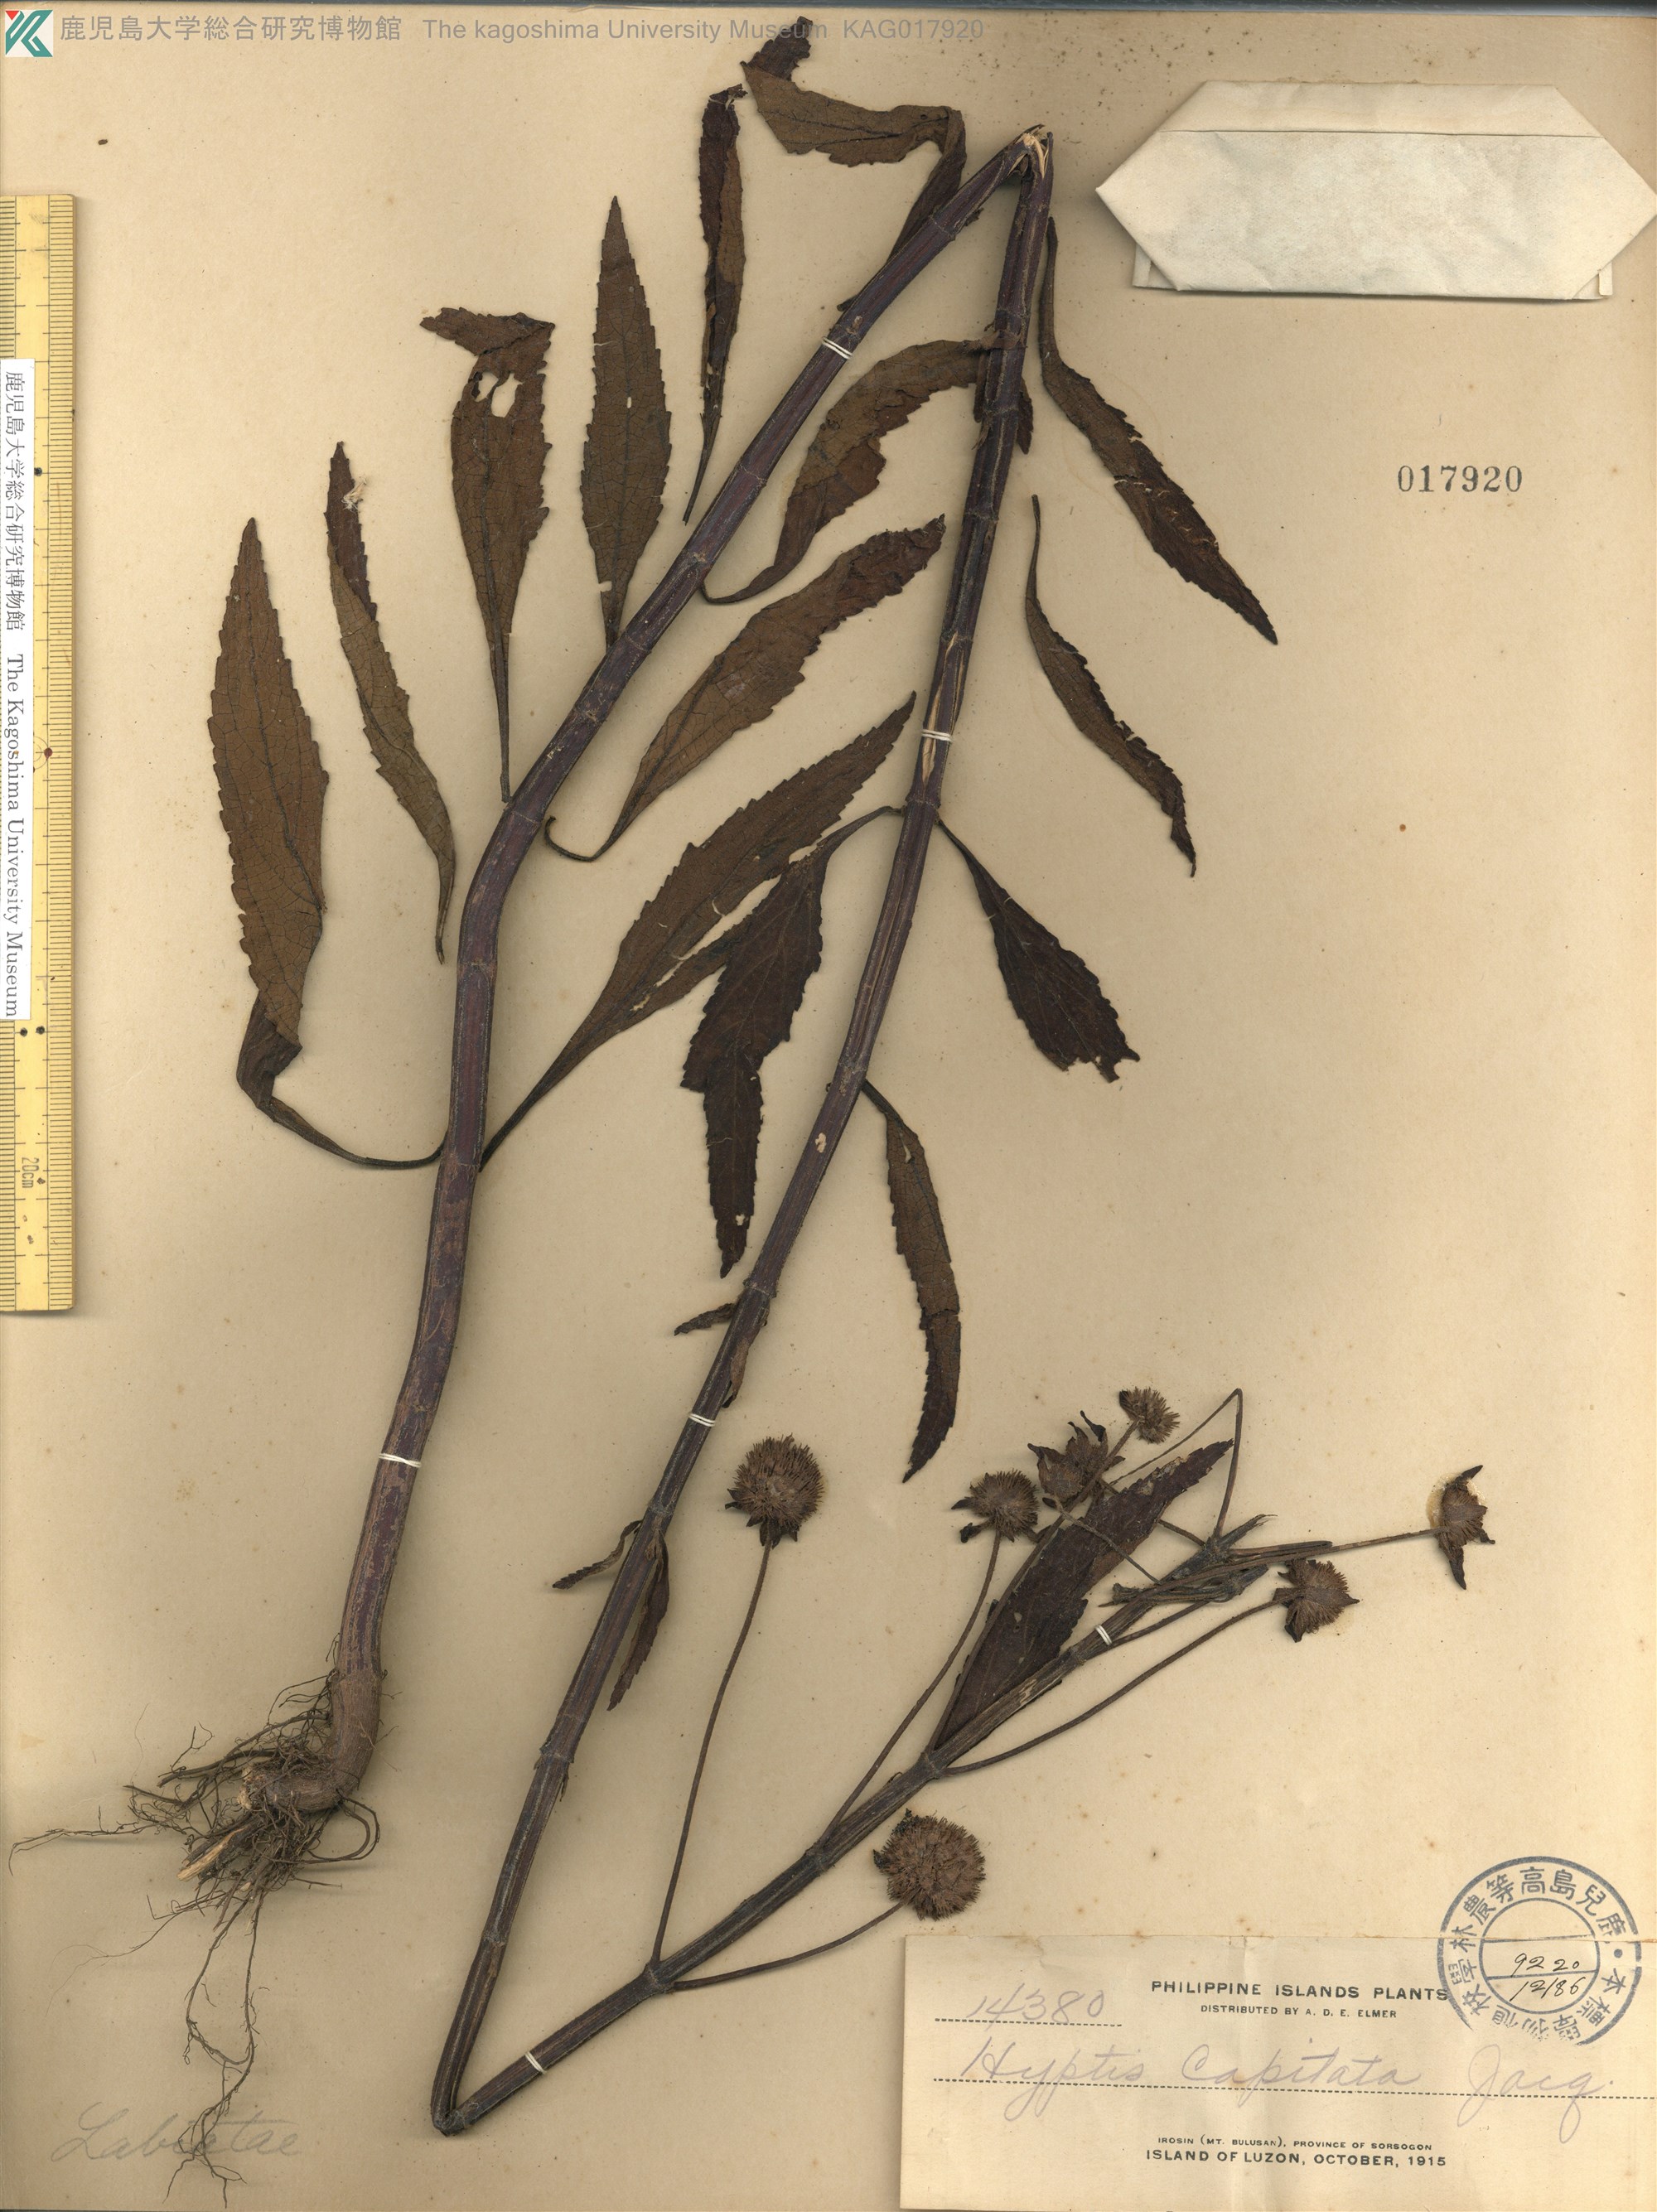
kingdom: Plantae
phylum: Tracheophyta
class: Magnoliopsida
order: Lamiales
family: Lamiaceae
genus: Hyptis
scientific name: Hyptis capitata
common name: False ironwort
